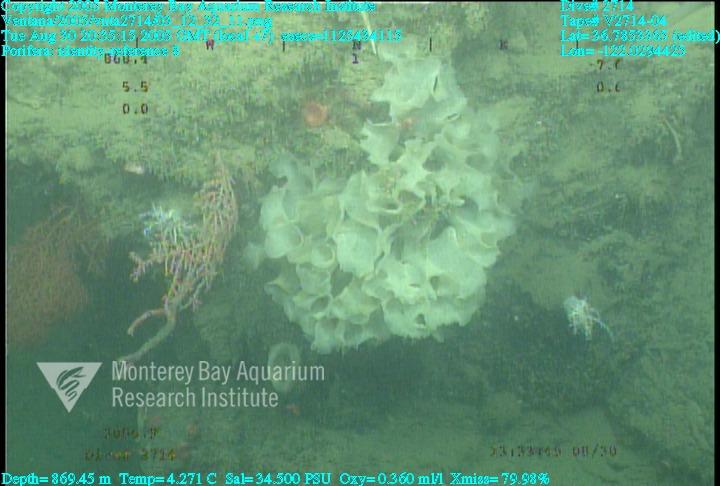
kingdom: Animalia
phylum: Porifera
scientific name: Porifera
